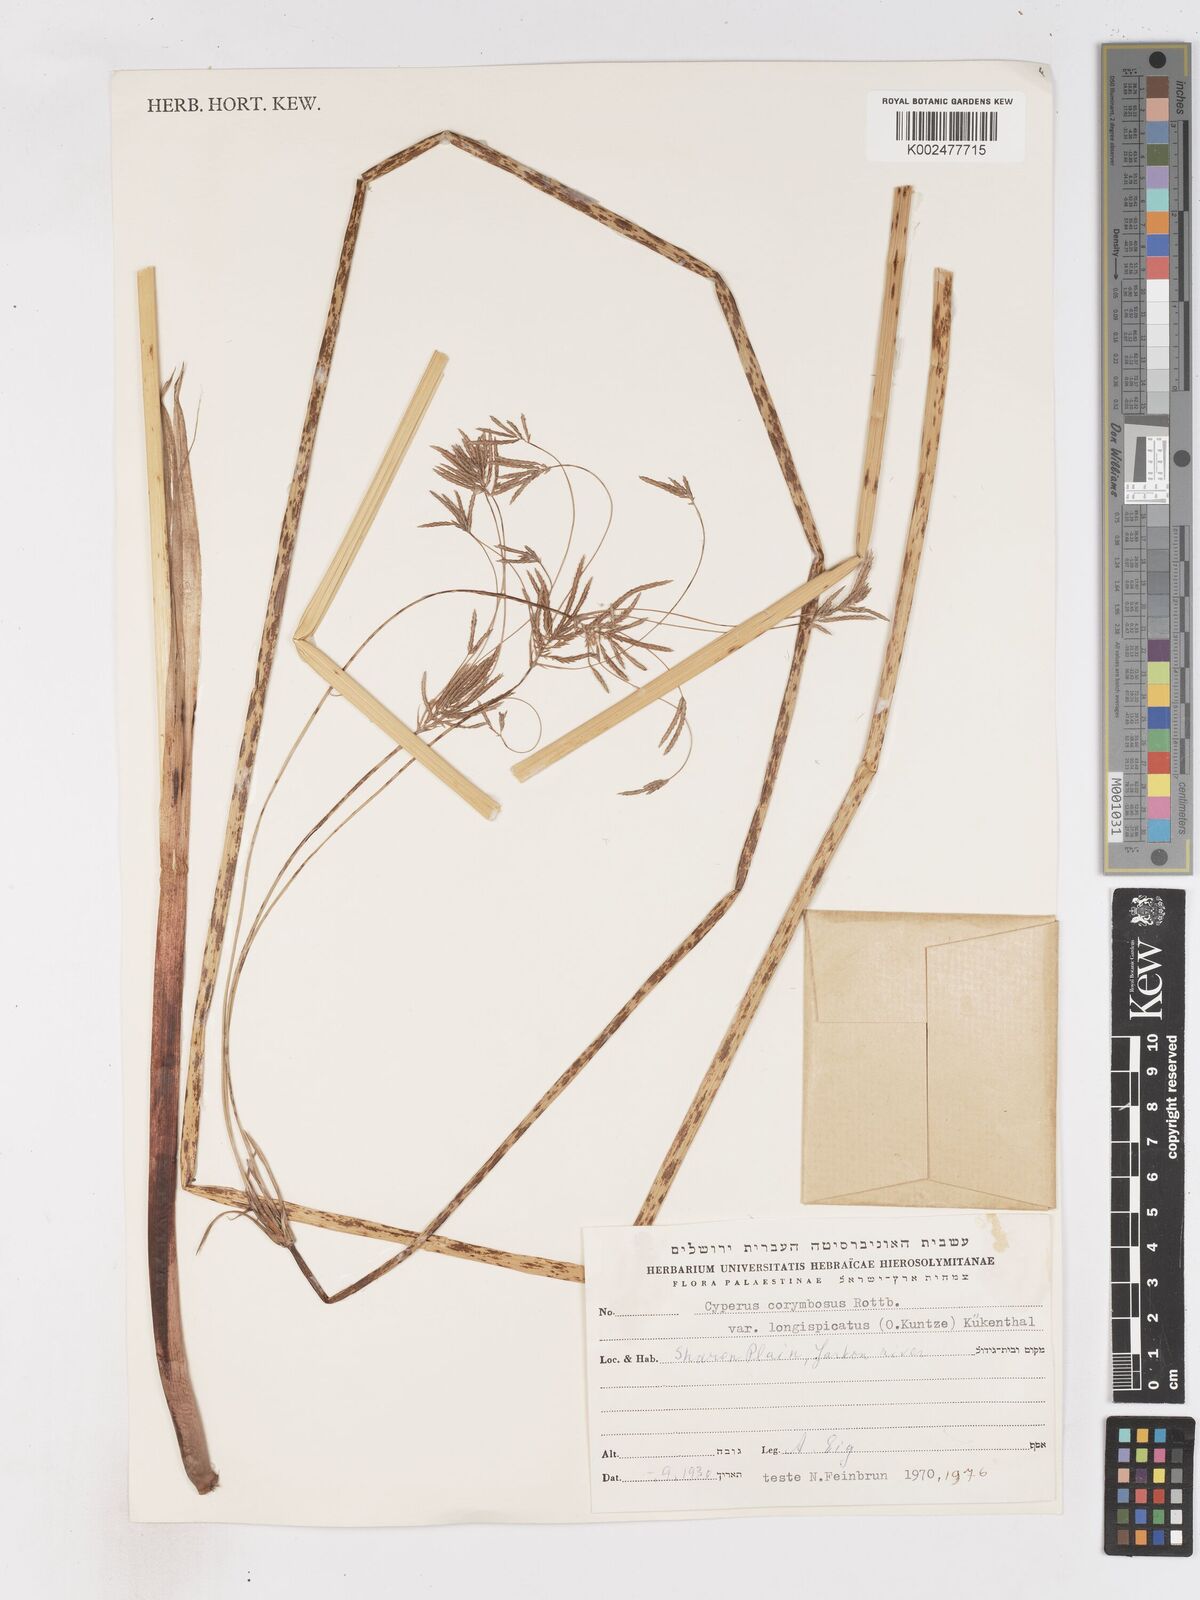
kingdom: Plantae
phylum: Tracheophyta
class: Liliopsida
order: Poales
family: Cyperaceae
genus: Cyperus
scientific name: Cyperus corymbosus
